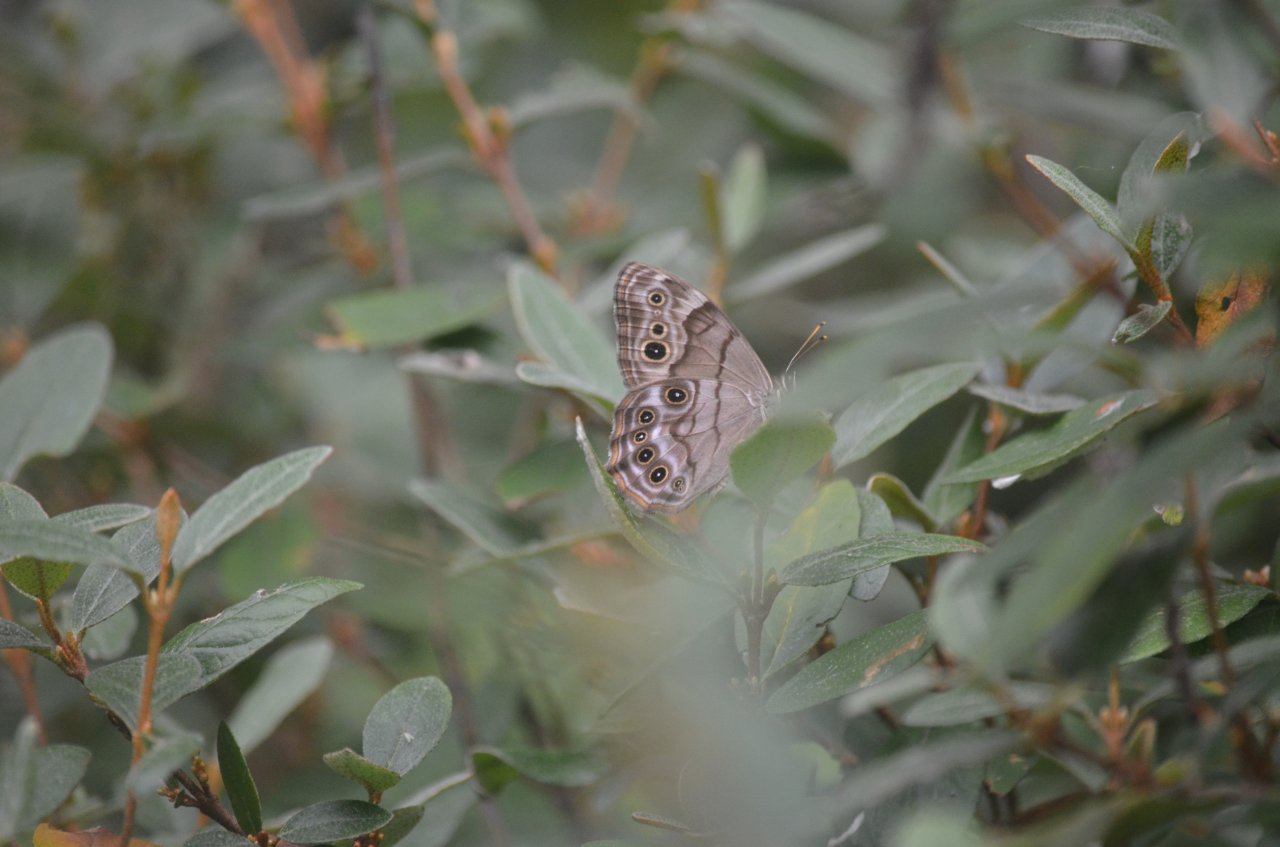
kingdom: Animalia
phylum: Arthropoda
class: Insecta
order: Lepidoptera
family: Nymphalidae
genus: Lethe
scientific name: Lethe anthedon
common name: Northern Pearly-Eye
